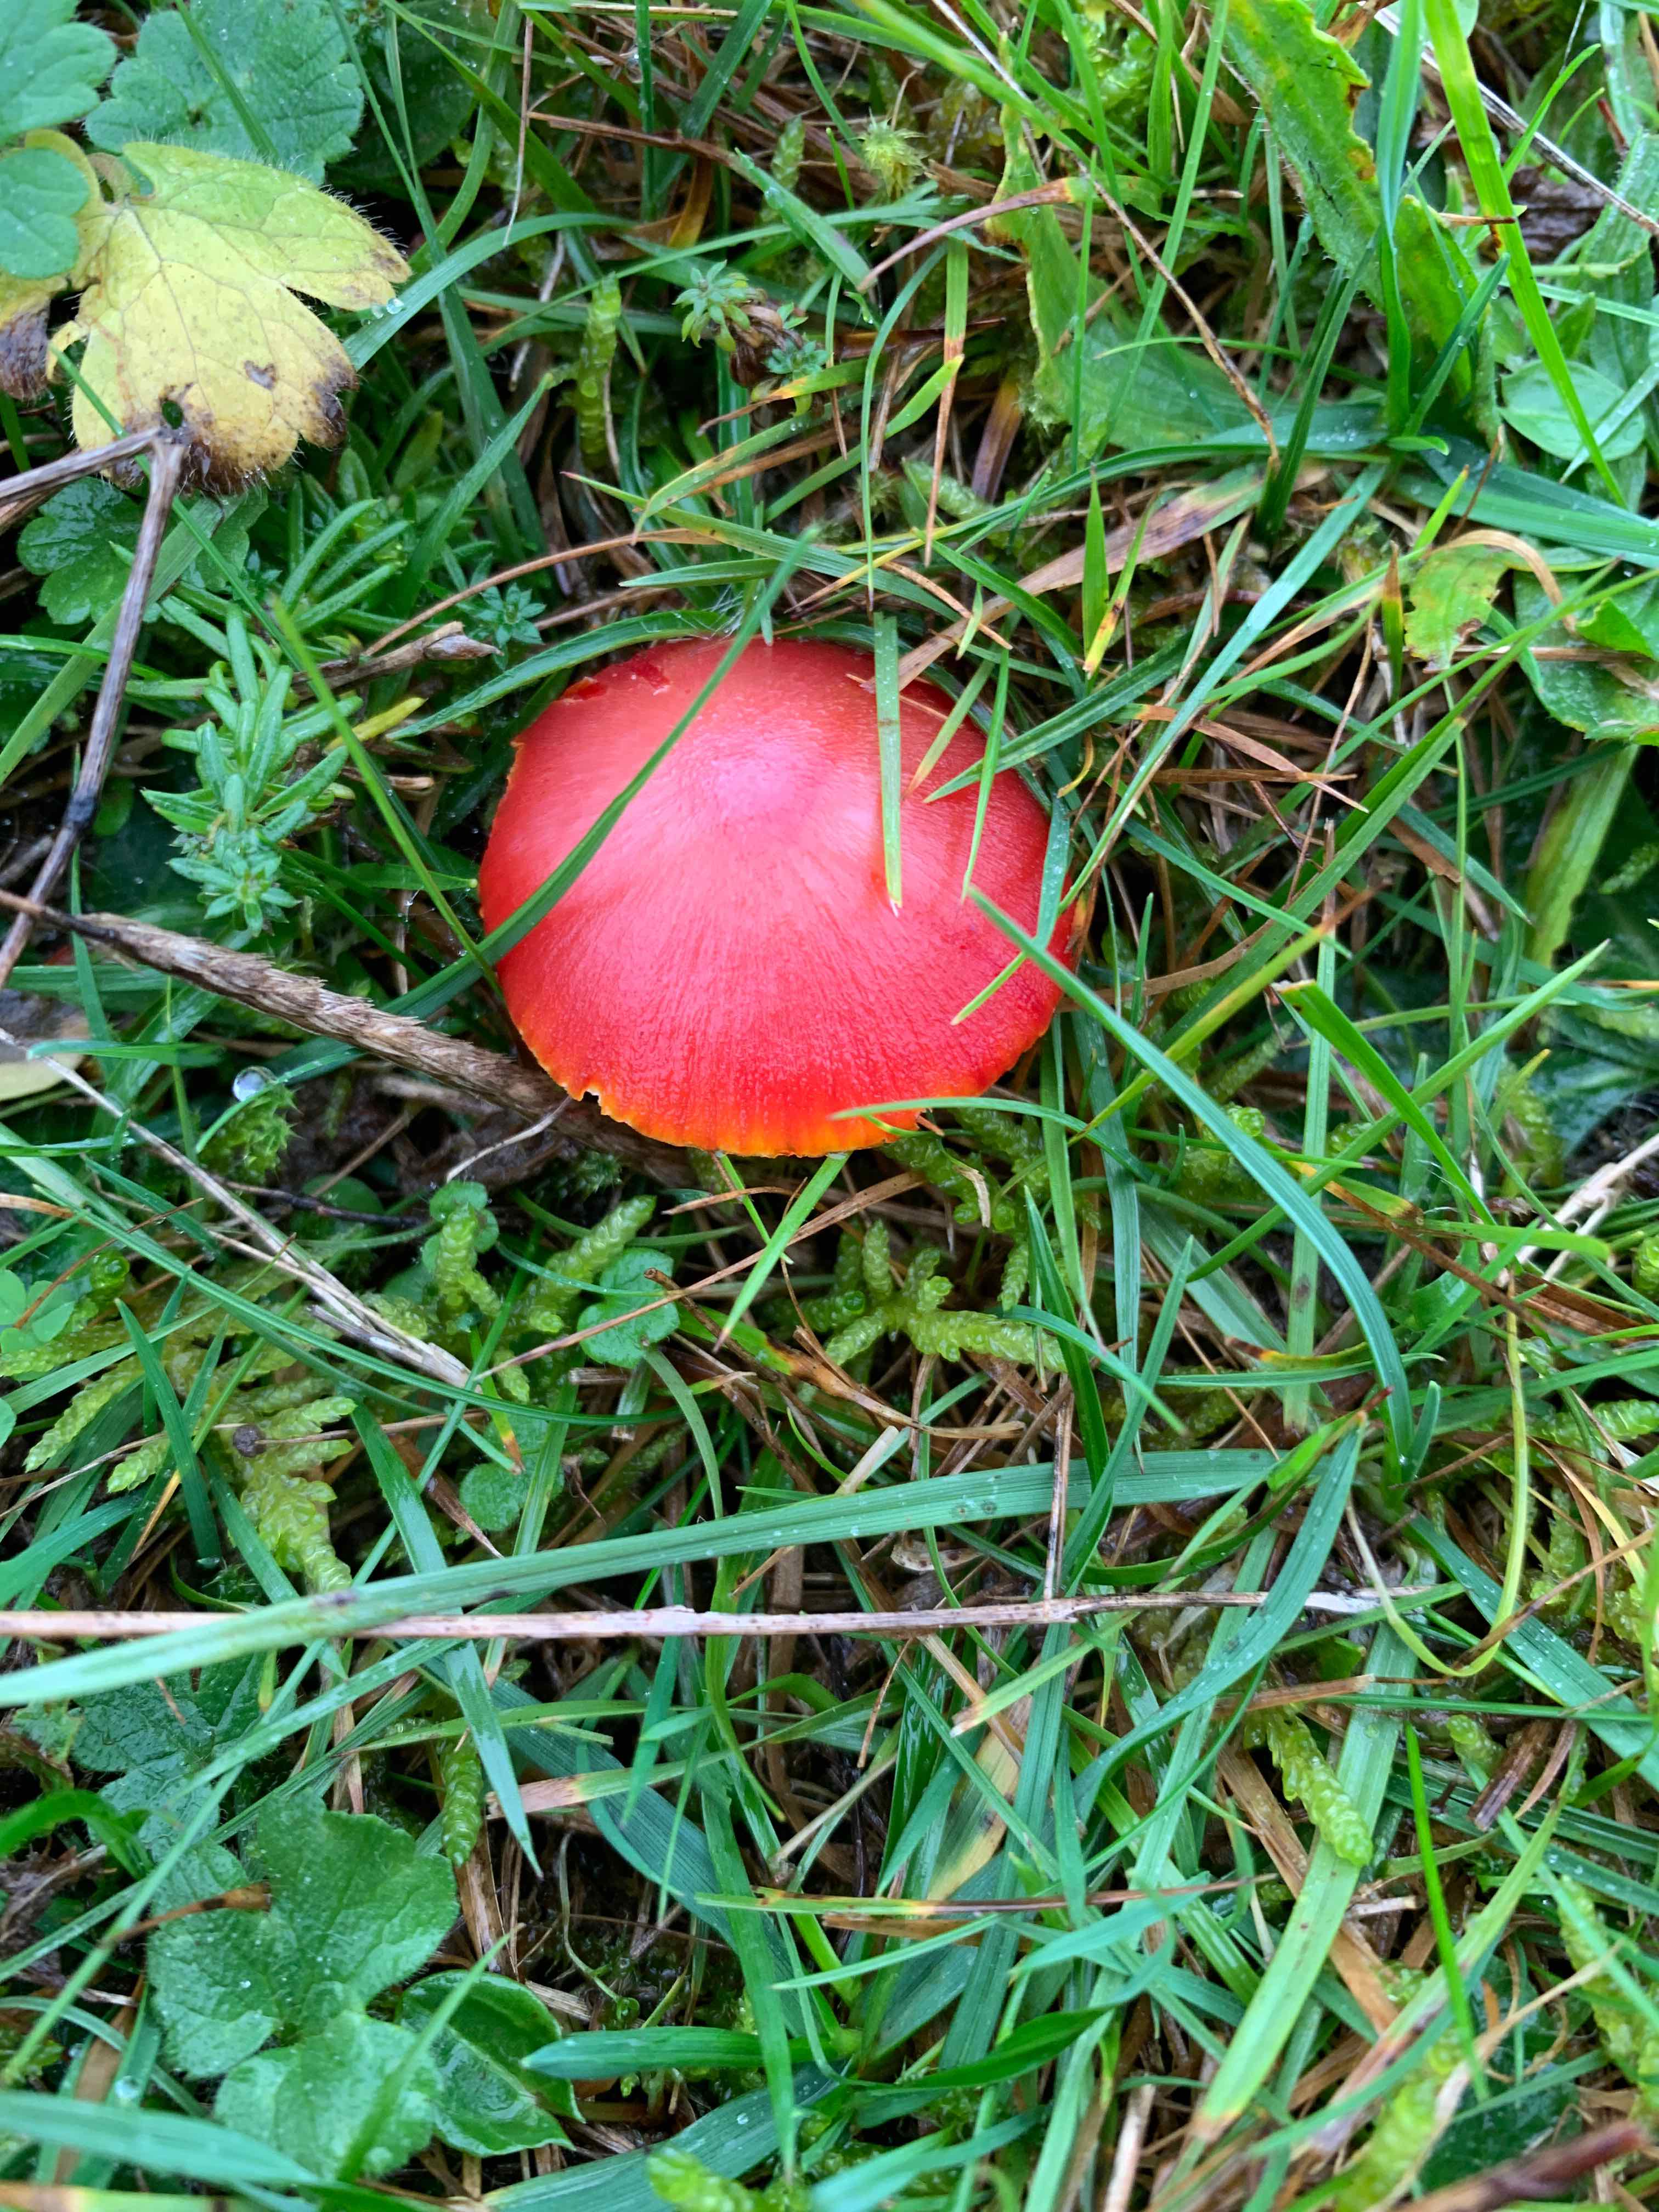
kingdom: Fungi
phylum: Basidiomycota
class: Agaricomycetes
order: Agaricales
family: Hygrophoraceae
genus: Hygrocybe
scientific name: Hygrocybe coccinea
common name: cinnober-vokshat
